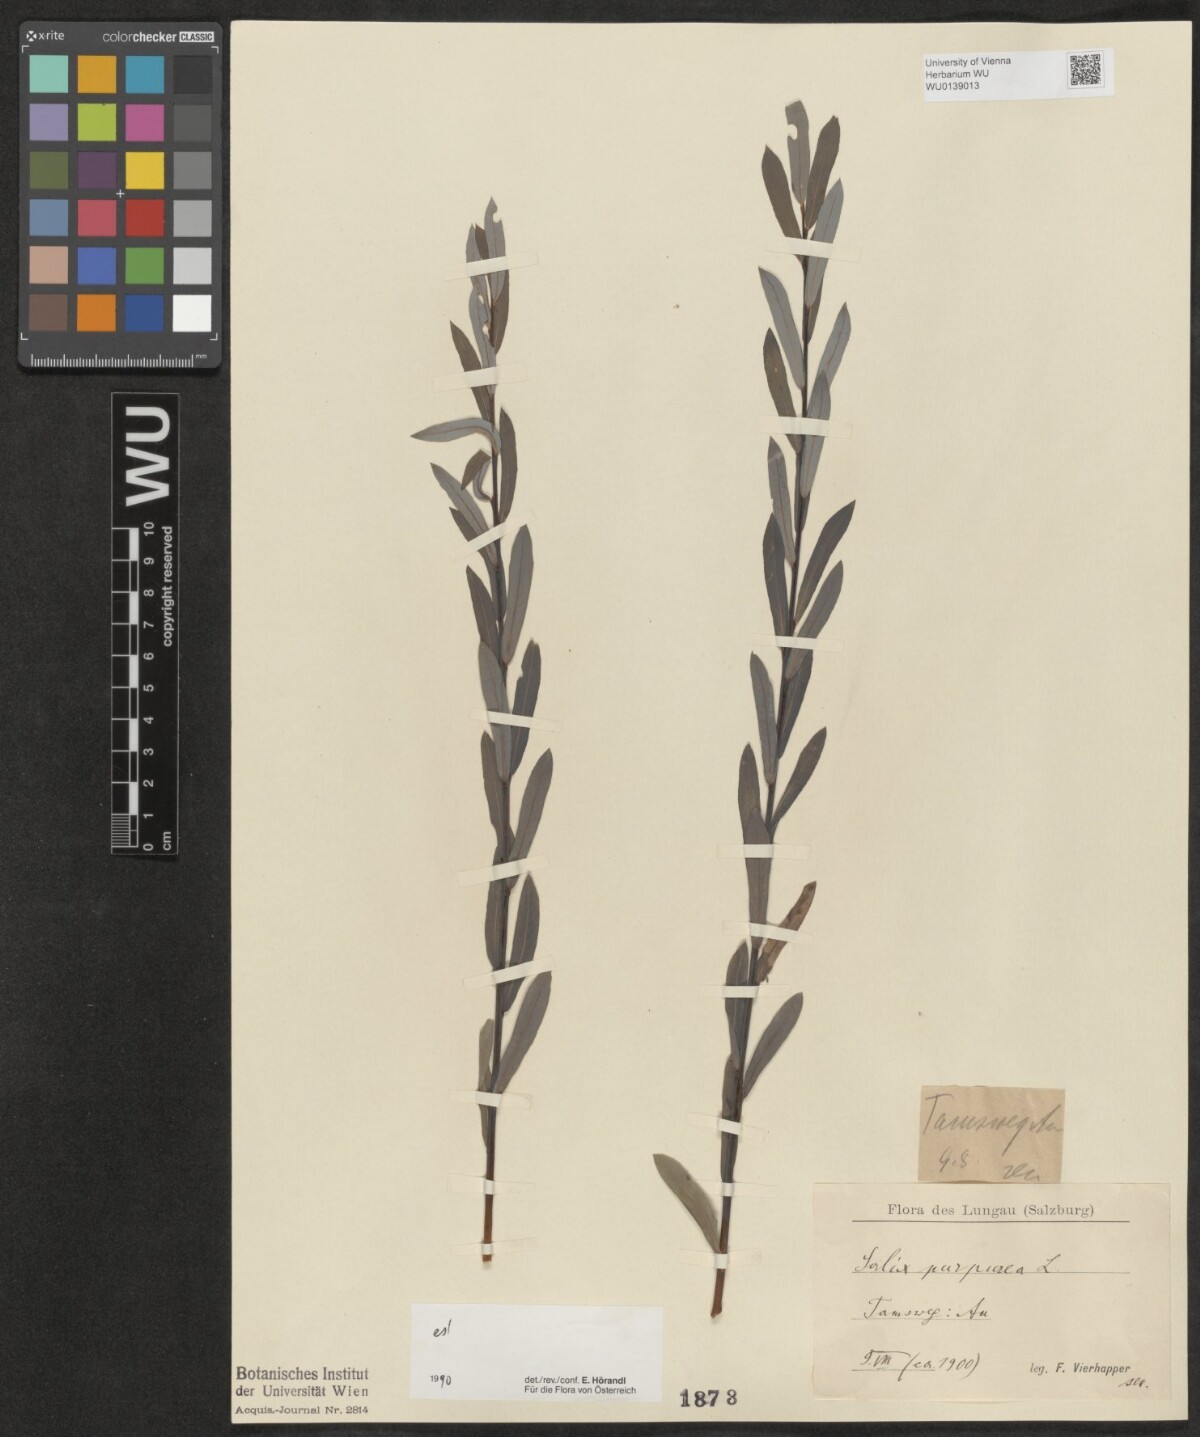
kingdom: Plantae
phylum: Tracheophyta
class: Magnoliopsida
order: Malpighiales
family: Salicaceae
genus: Salix
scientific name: Salix purpurea
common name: Purple willow
